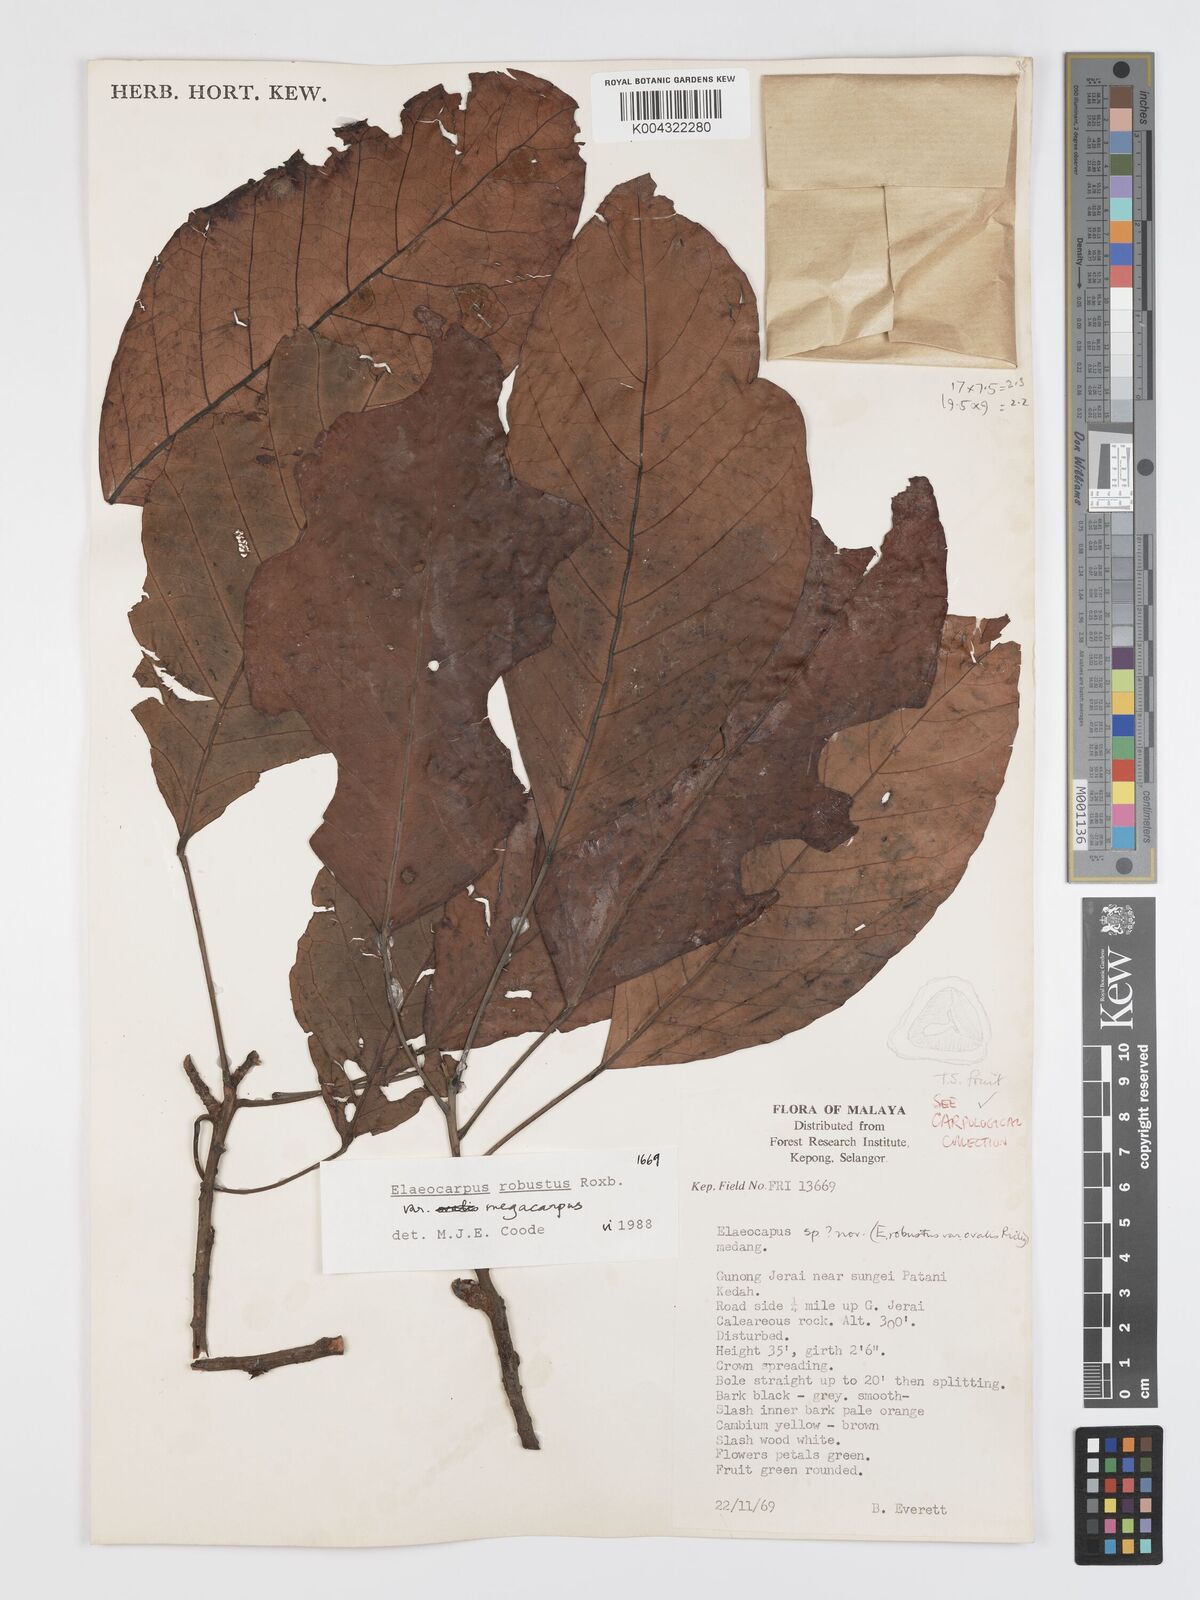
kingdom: Plantae
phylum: Tracheophyta
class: Magnoliopsida
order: Oxalidales
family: Elaeocarpaceae
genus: Elaeocarpus
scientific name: Elaeocarpus robustus
